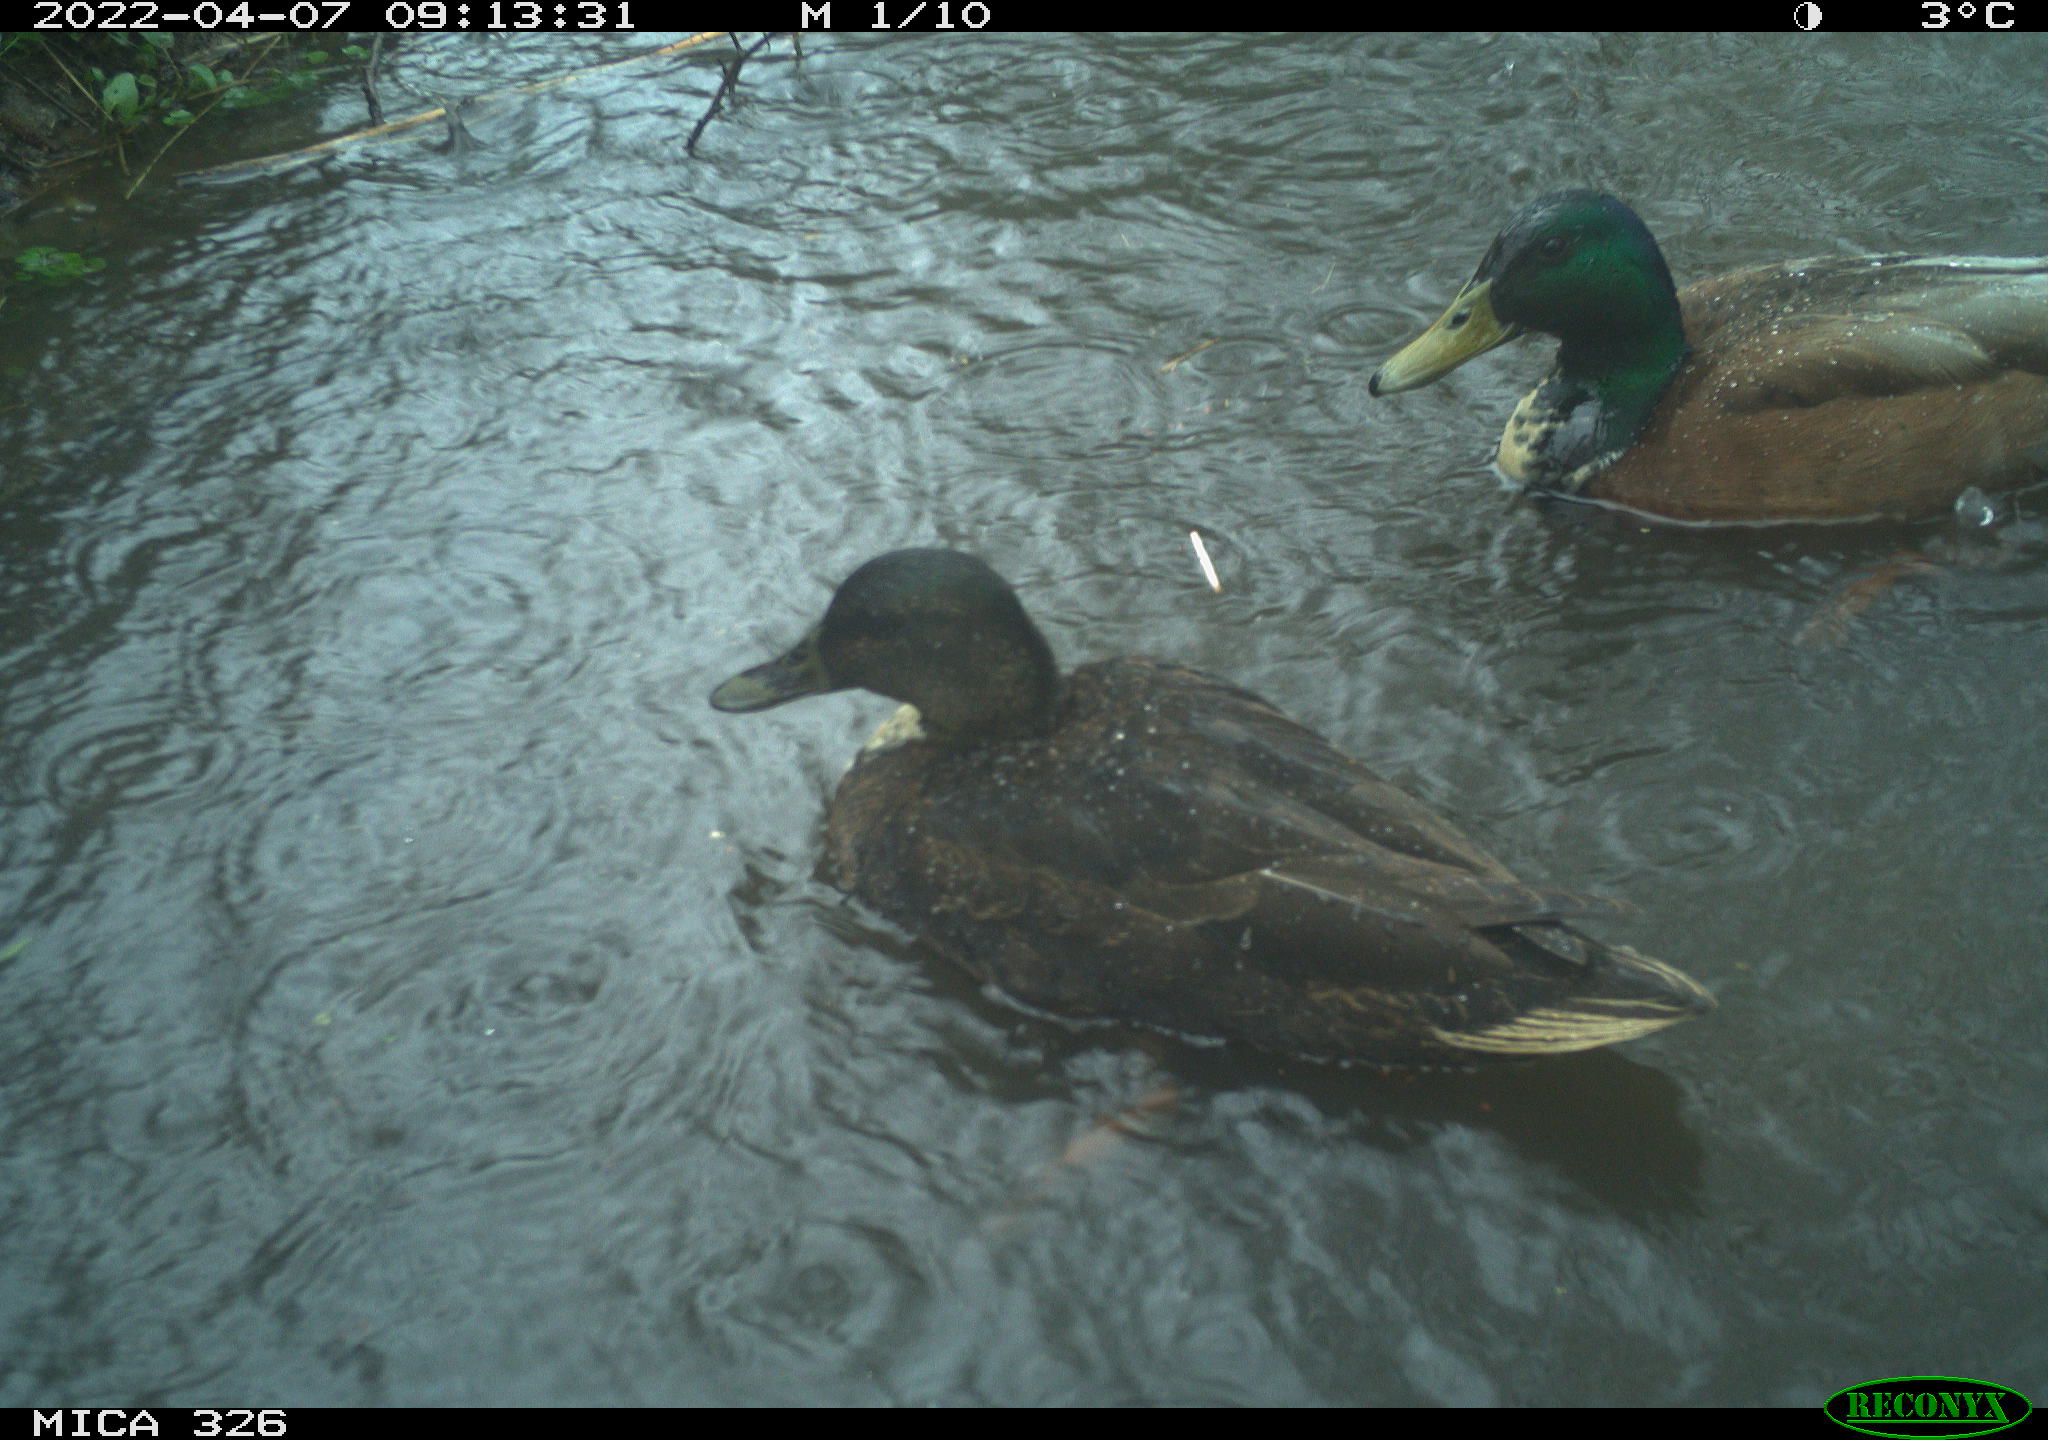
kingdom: Animalia
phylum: Chordata
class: Aves
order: Anseriformes
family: Anatidae
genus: Anas
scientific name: Anas platyrhynchos
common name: Mallard
